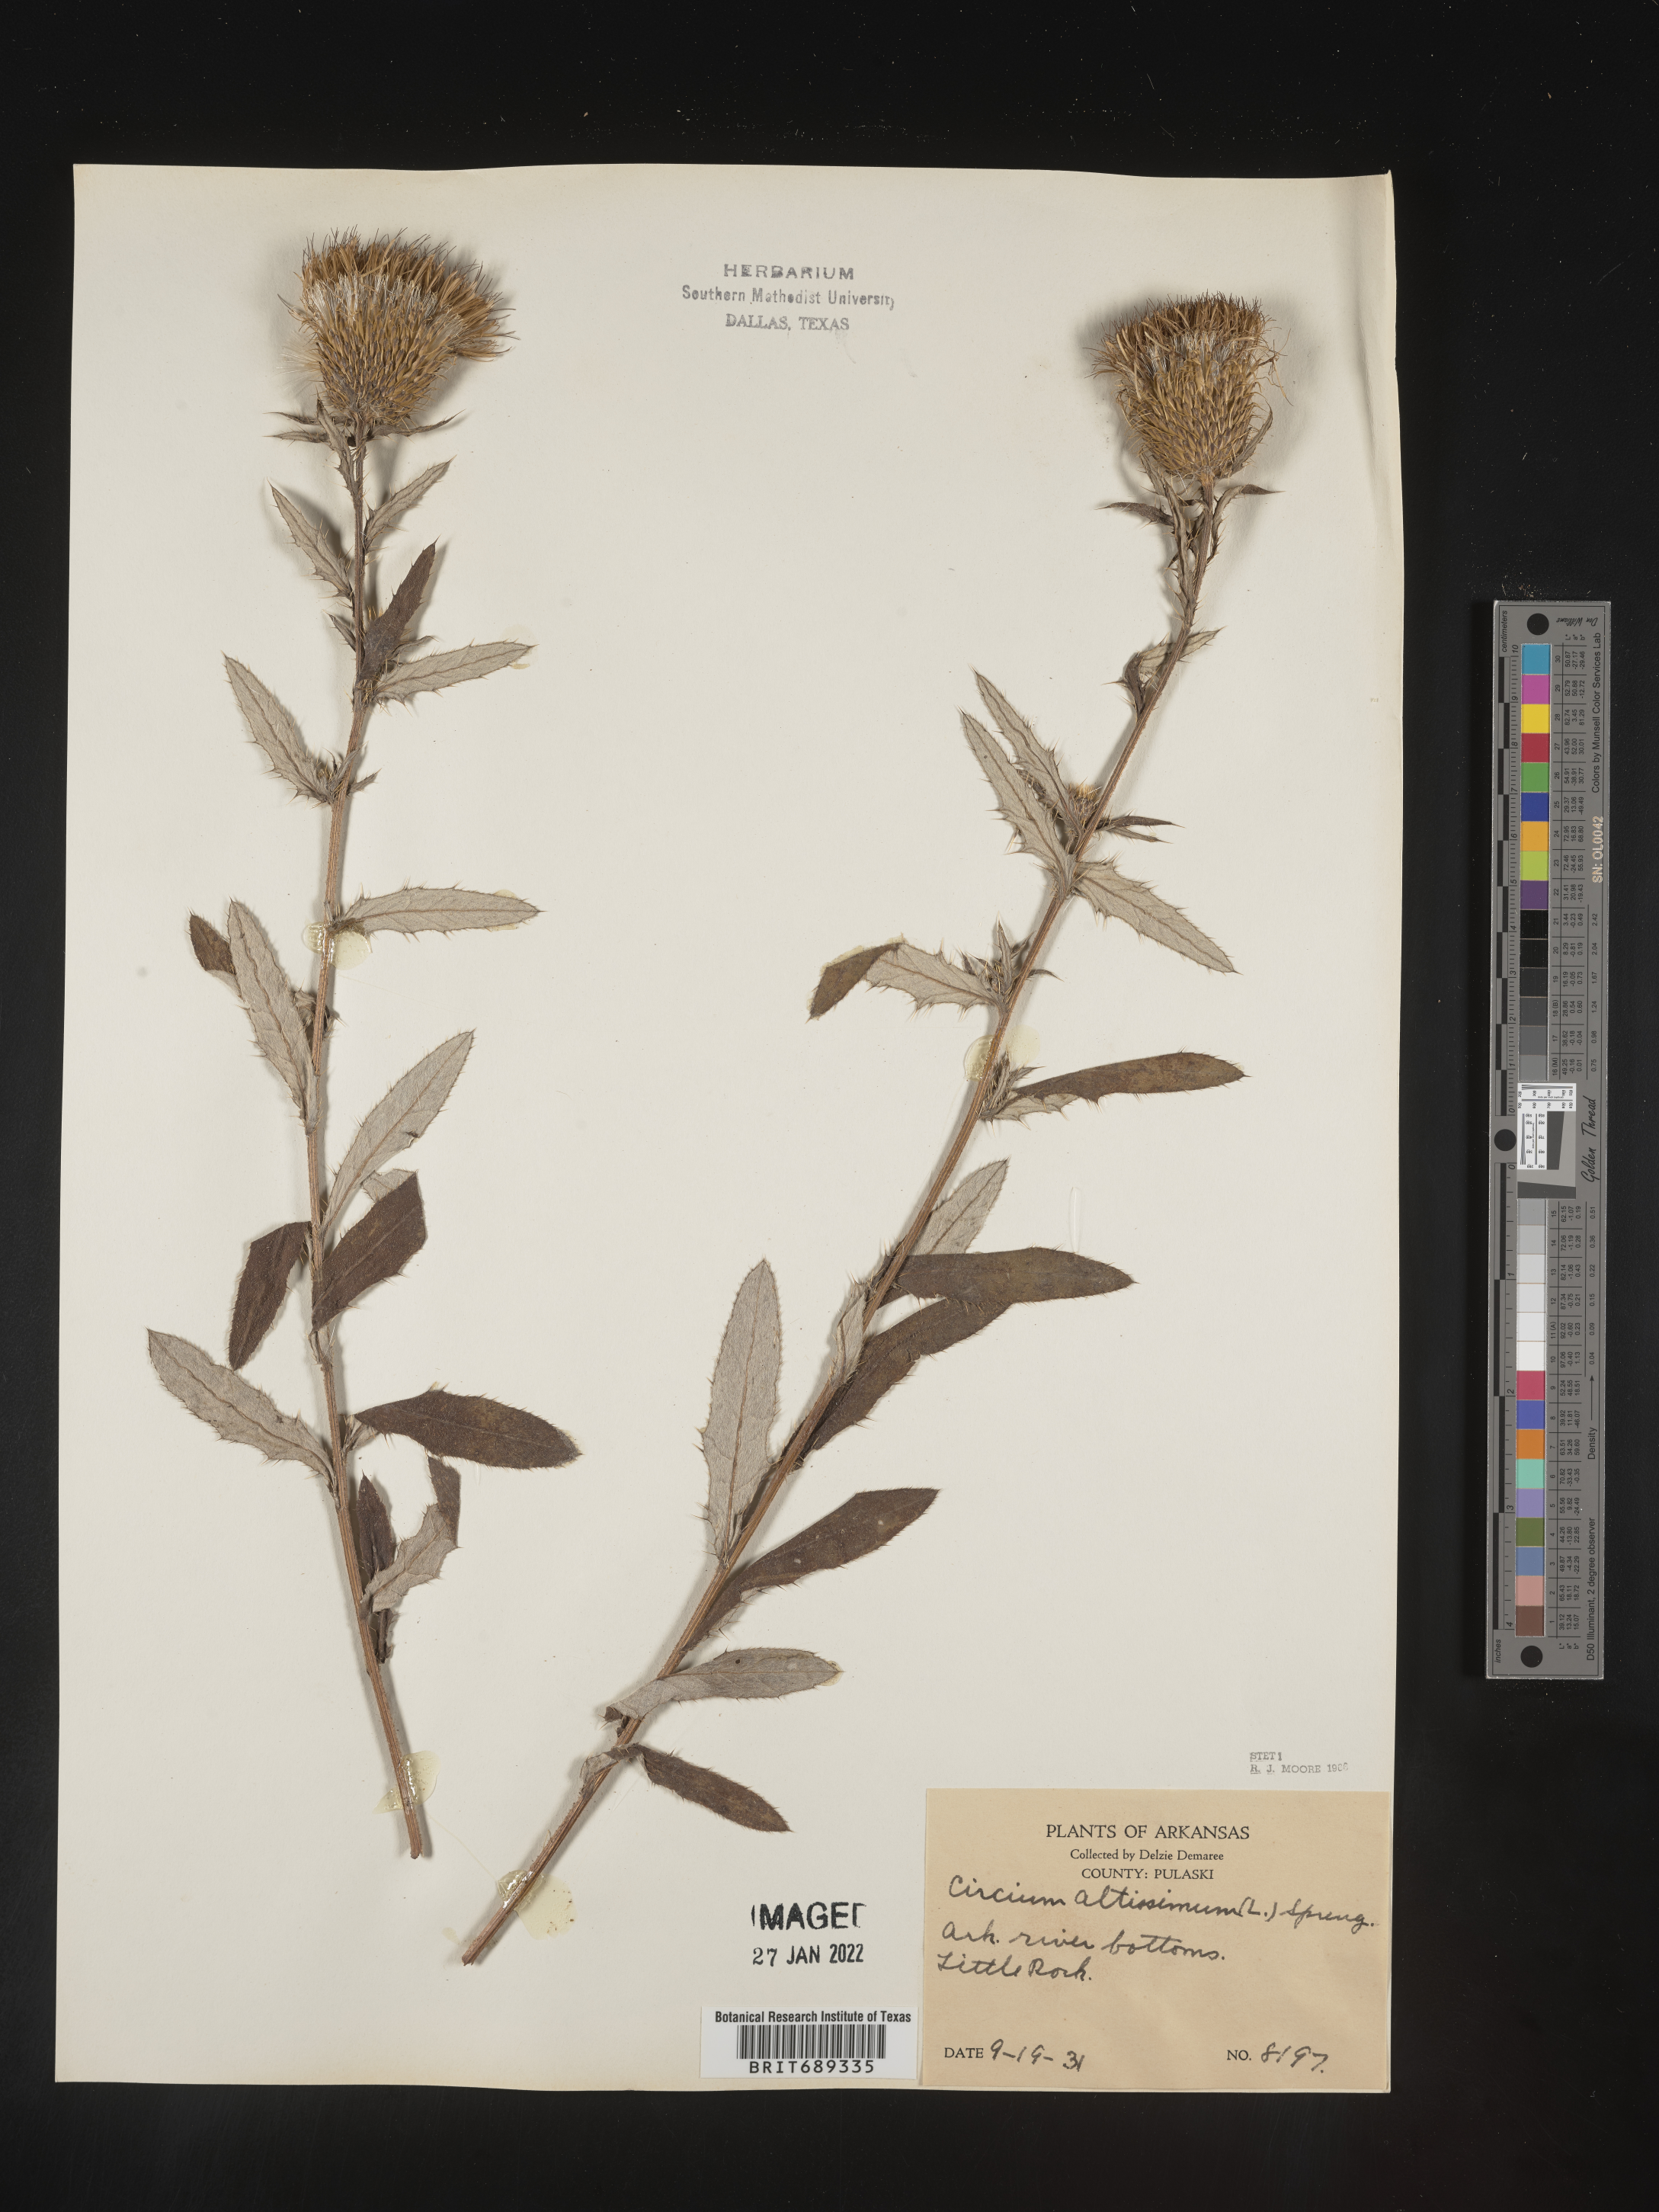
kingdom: Plantae
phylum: Tracheophyta
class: Magnoliopsida
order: Asterales
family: Asteraceae
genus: Cirsium
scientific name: Cirsium altissimum
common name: Roadside thistle
